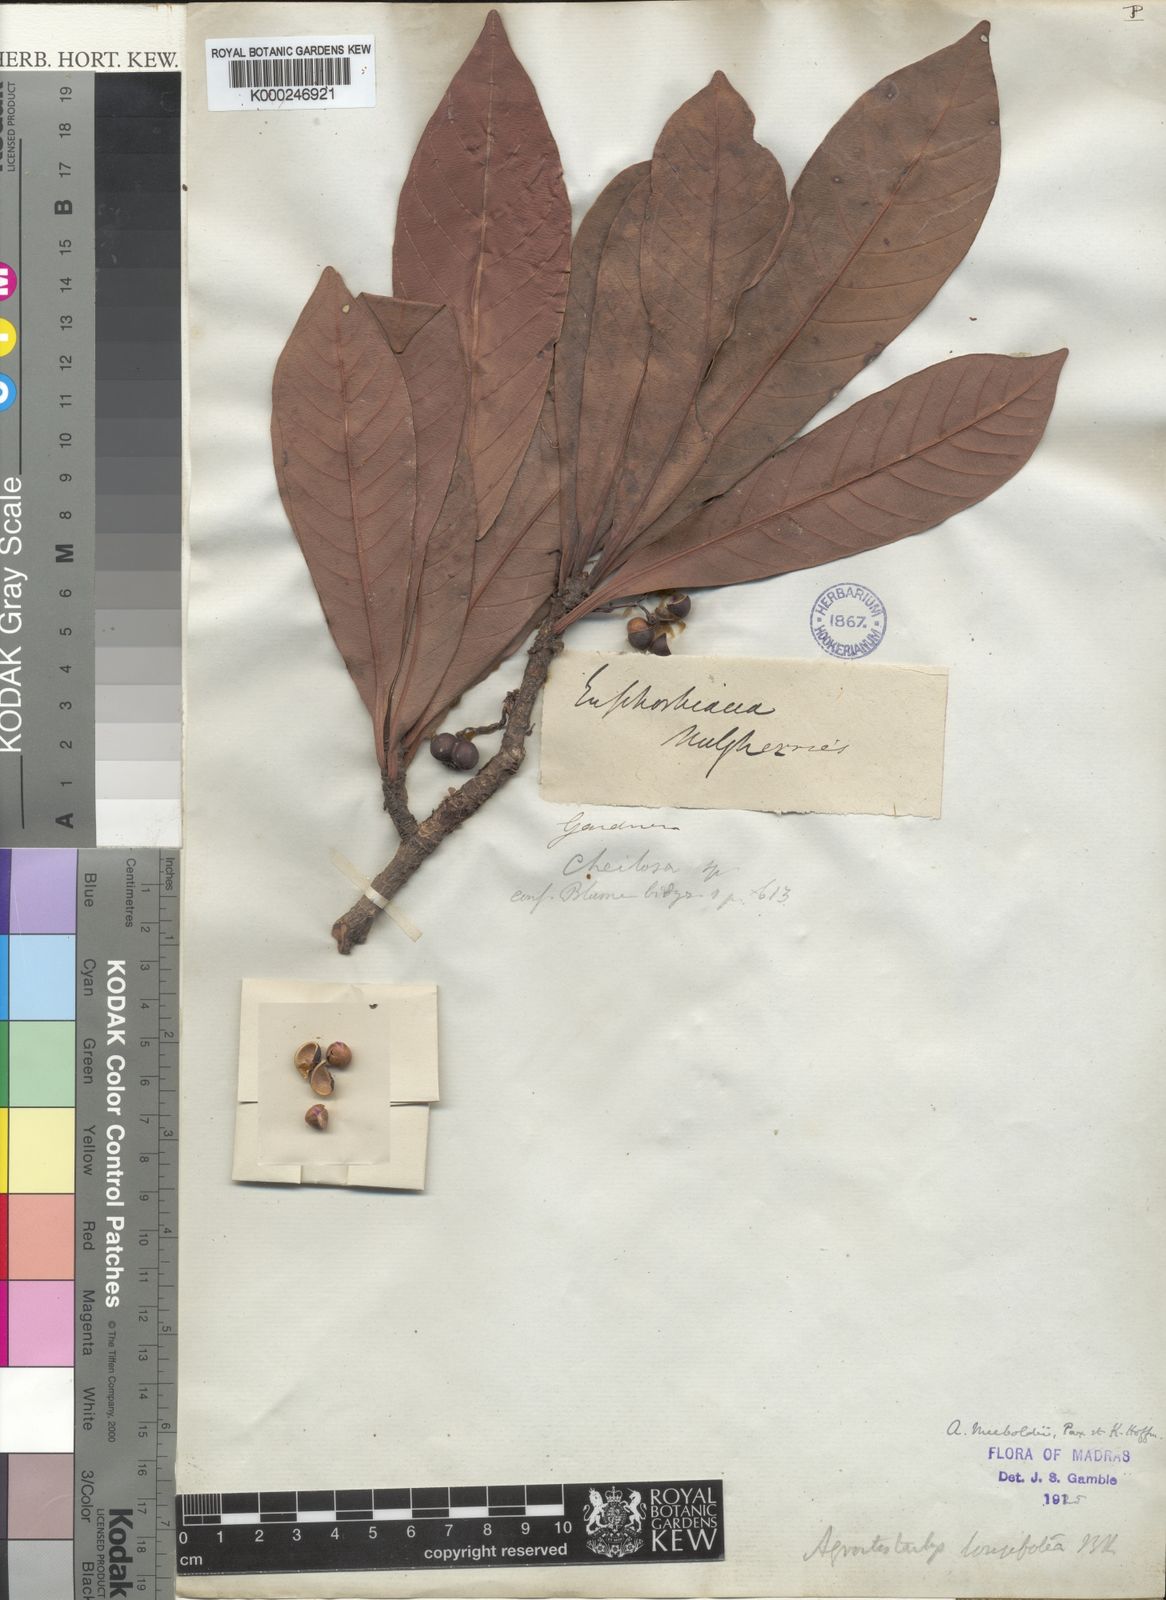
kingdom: Plantae
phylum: Tracheophyta
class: Magnoliopsida
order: Malpighiales
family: Euphorbiaceae
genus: Agrostistachys
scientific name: Agrostistachys borneensis
